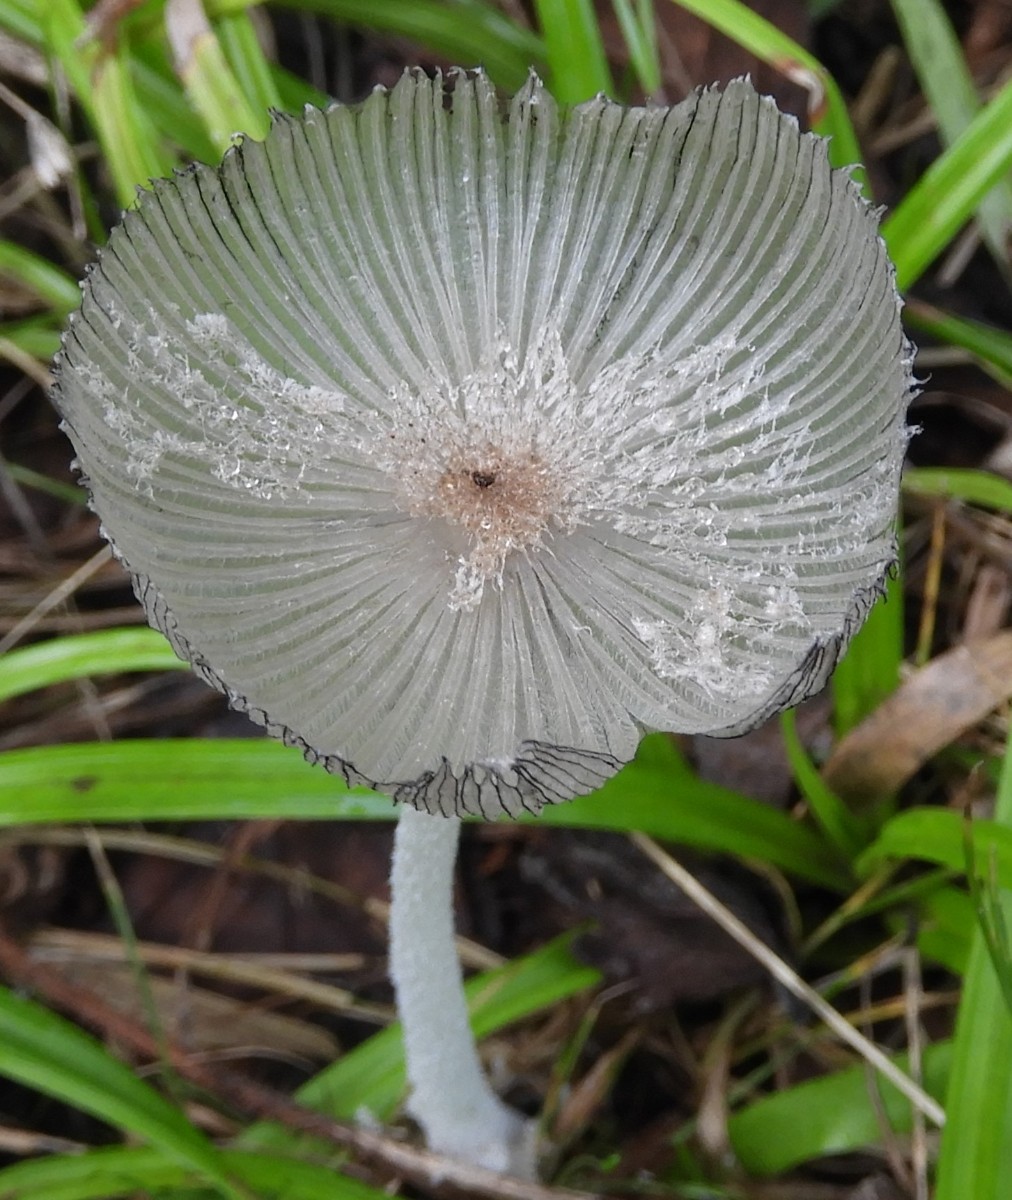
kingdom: Fungi
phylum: Basidiomycota
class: Agaricomycetes
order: Agaricales
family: Psathyrellaceae
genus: Coprinopsis
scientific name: Coprinopsis lagopus
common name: dunstokket blækhat
